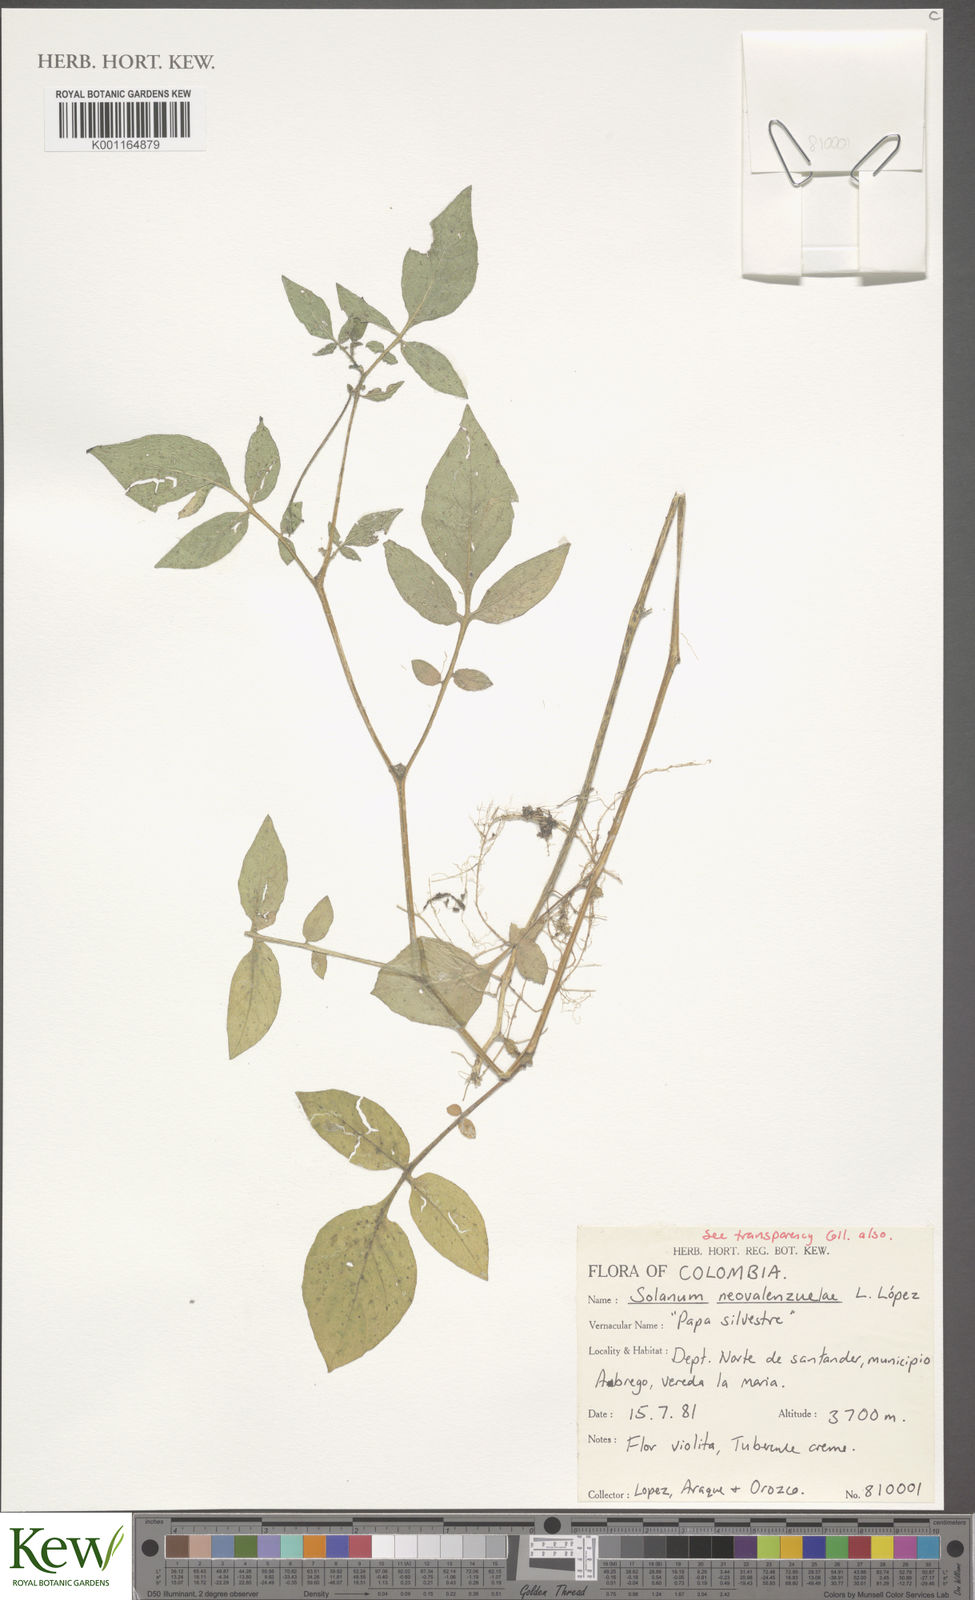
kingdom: Plantae
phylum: Tracheophyta
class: Magnoliopsida
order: Solanales
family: Solanaceae
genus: Solanum
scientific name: Solanum flahaultii
